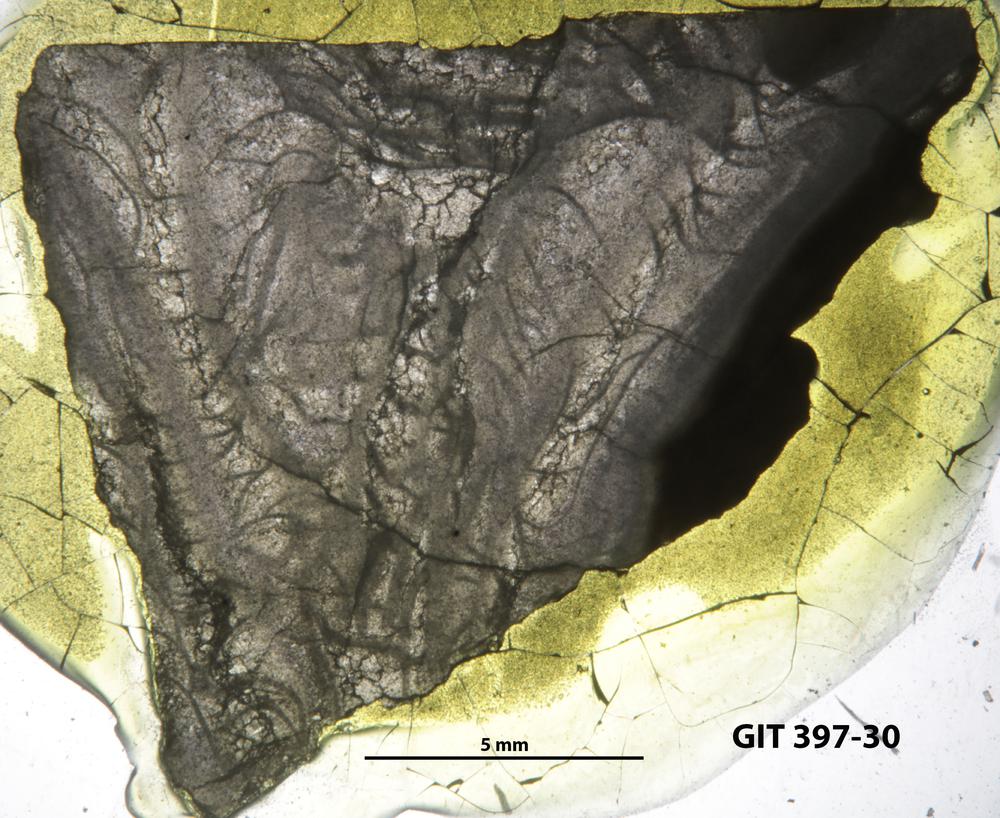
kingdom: Animalia
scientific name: Animalia
